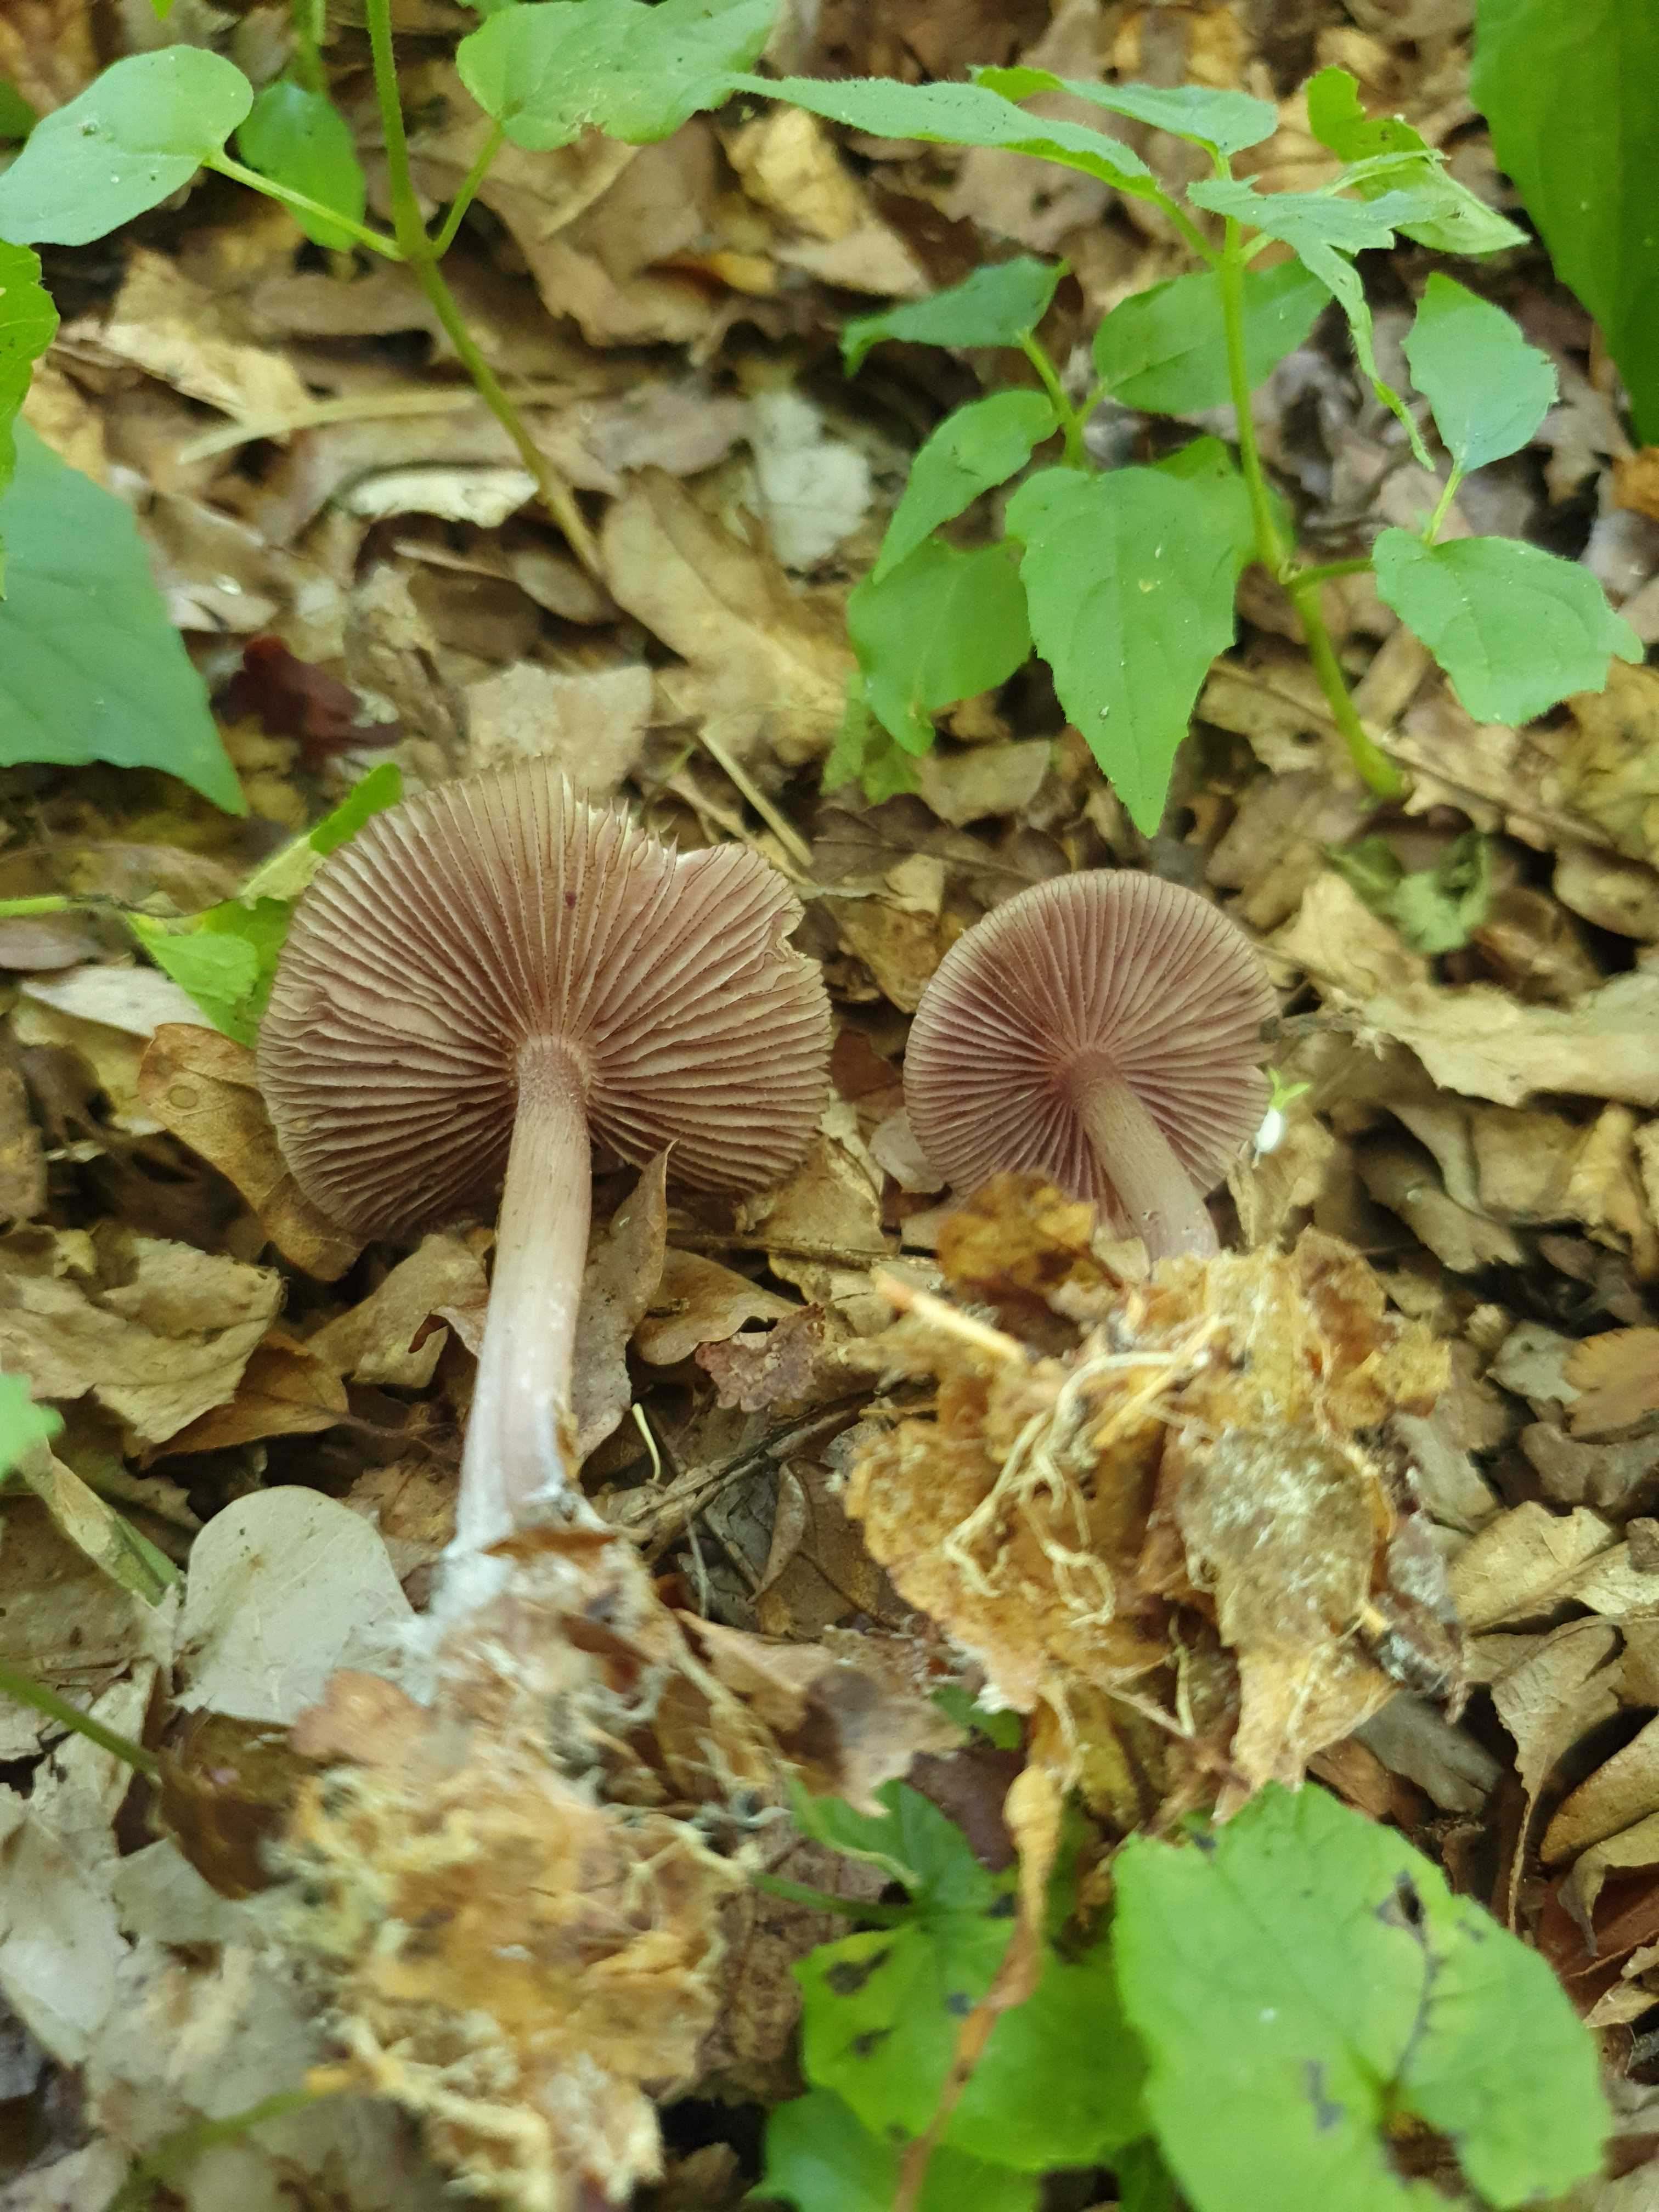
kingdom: Fungi
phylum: Basidiomycota
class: Agaricomycetes
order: Agaricales
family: Mycenaceae
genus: Mycena
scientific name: Mycena pelianthina
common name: mørkbladet huesvamp
